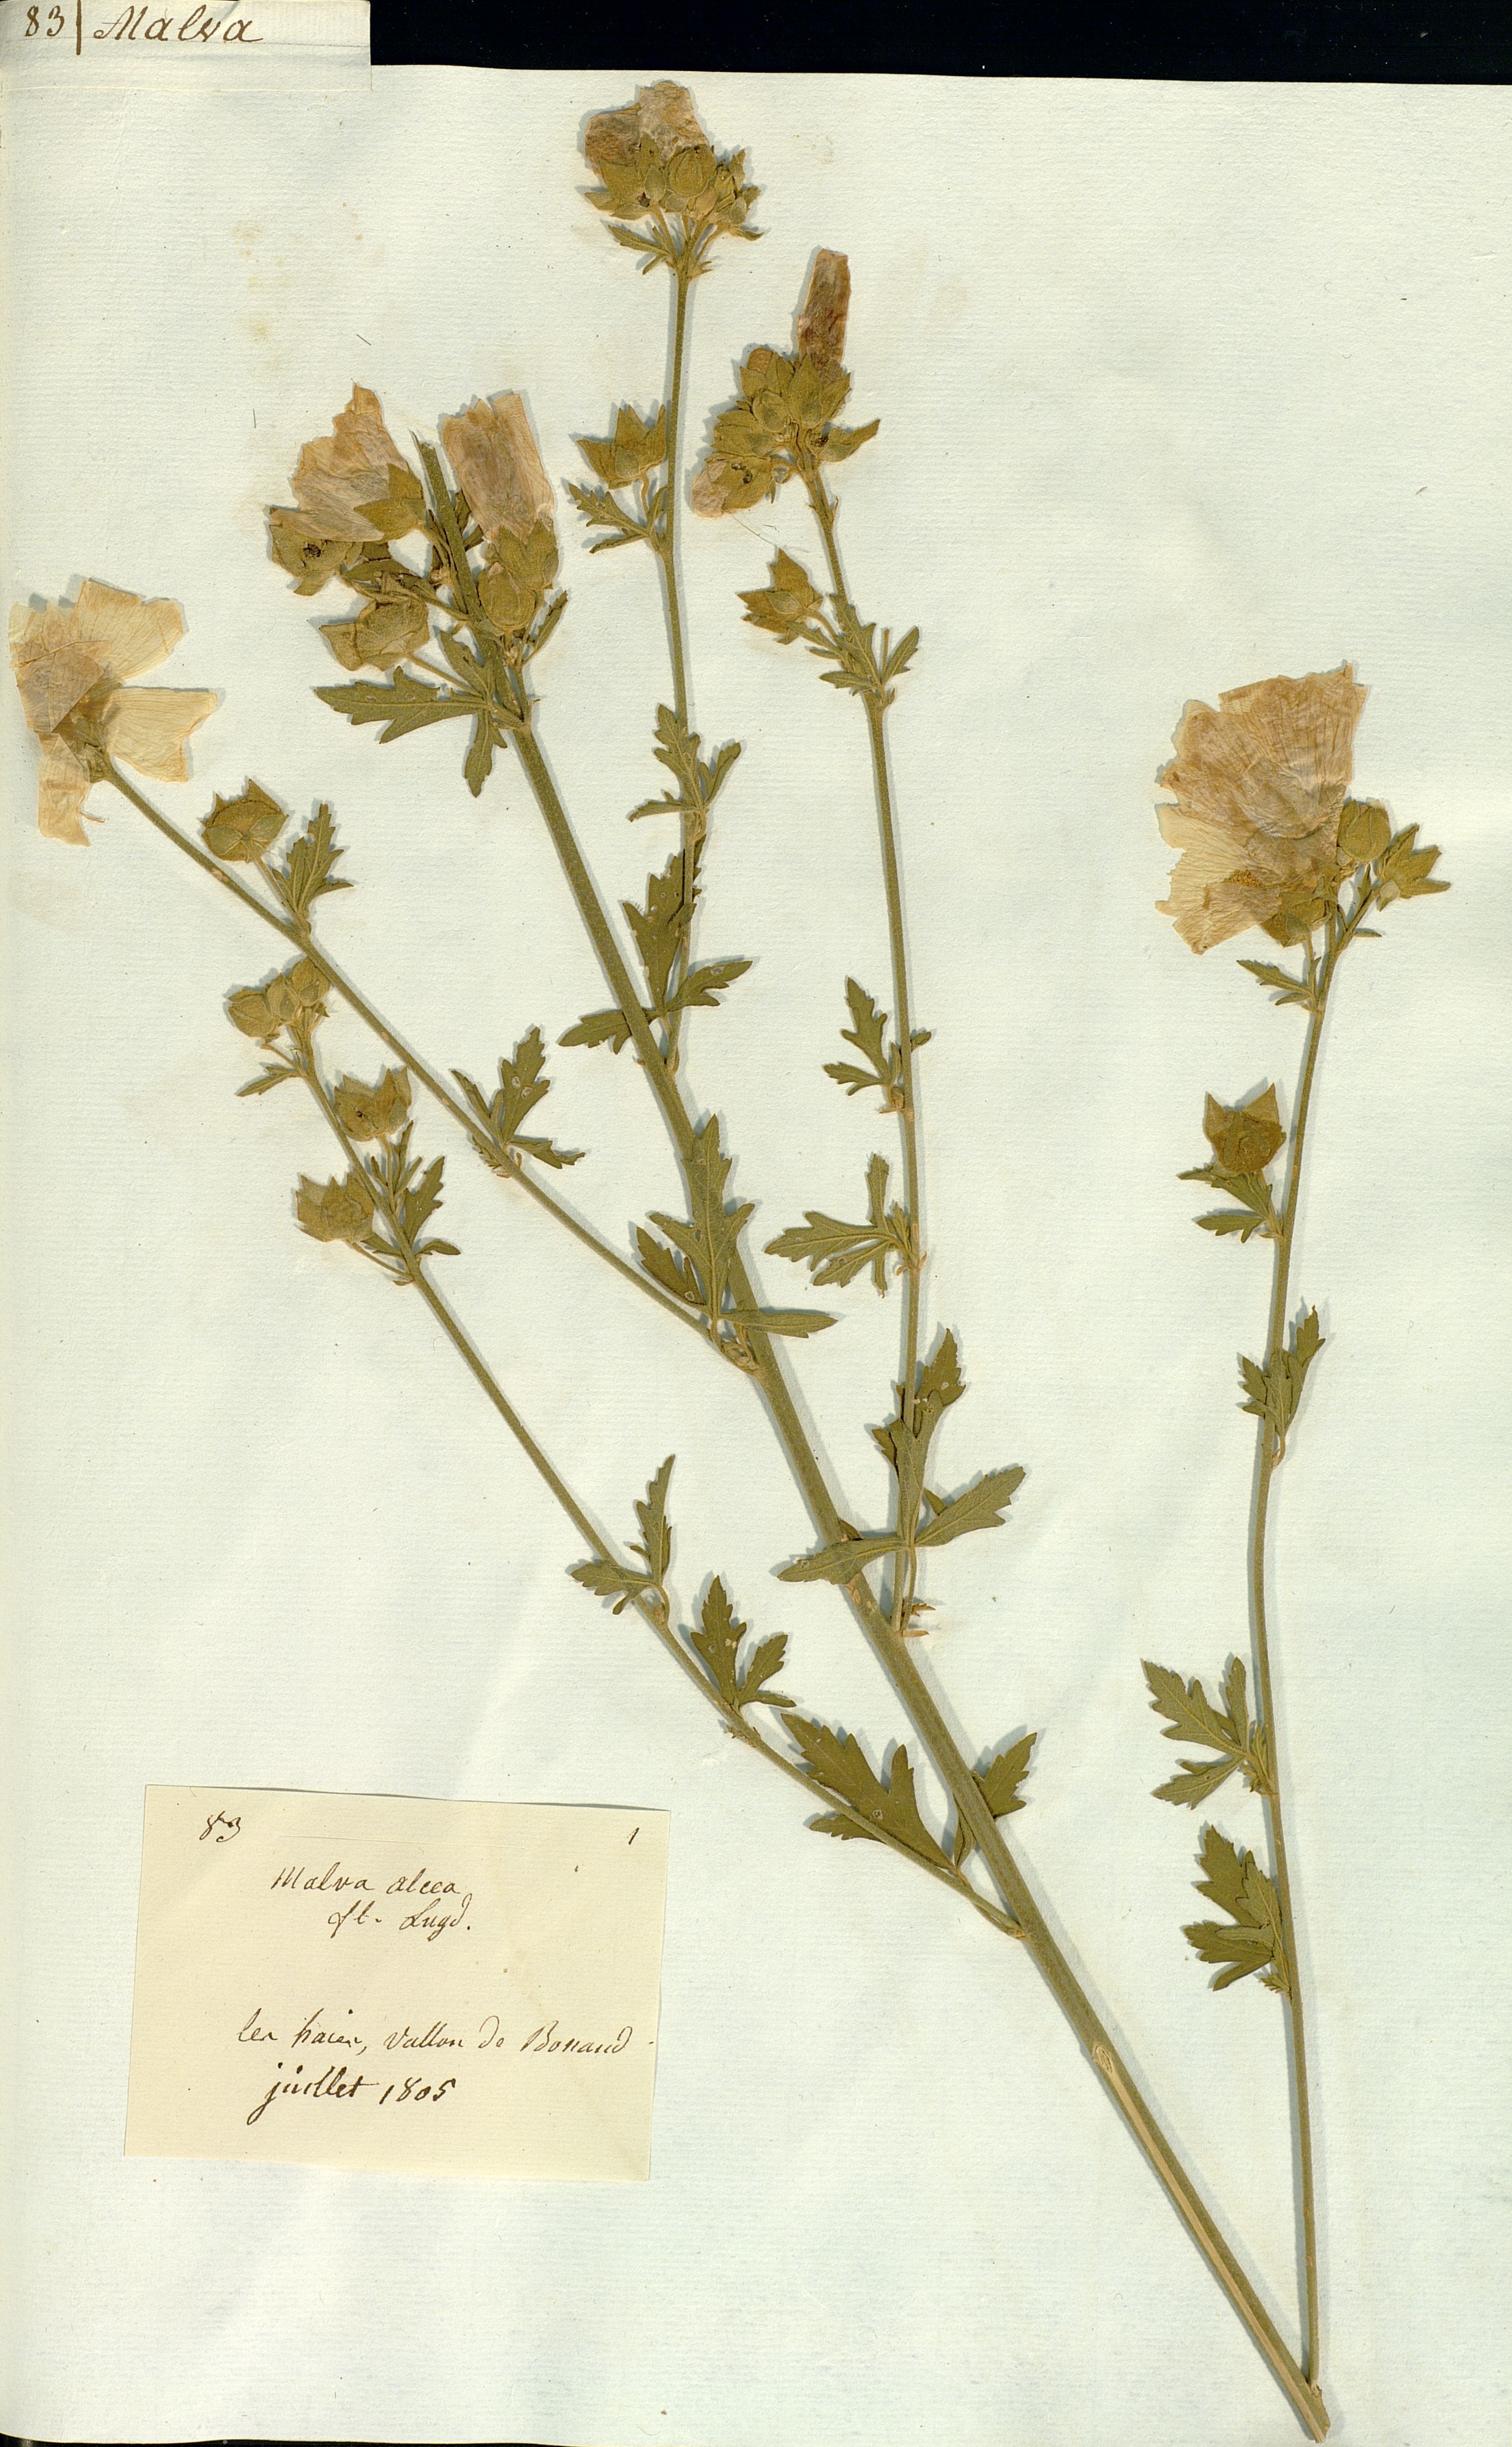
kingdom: Plantae
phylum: Tracheophyta
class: Magnoliopsida
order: Malvales
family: Malvaceae
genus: Malva
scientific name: Malva alcea
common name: Greater musk-mallow
